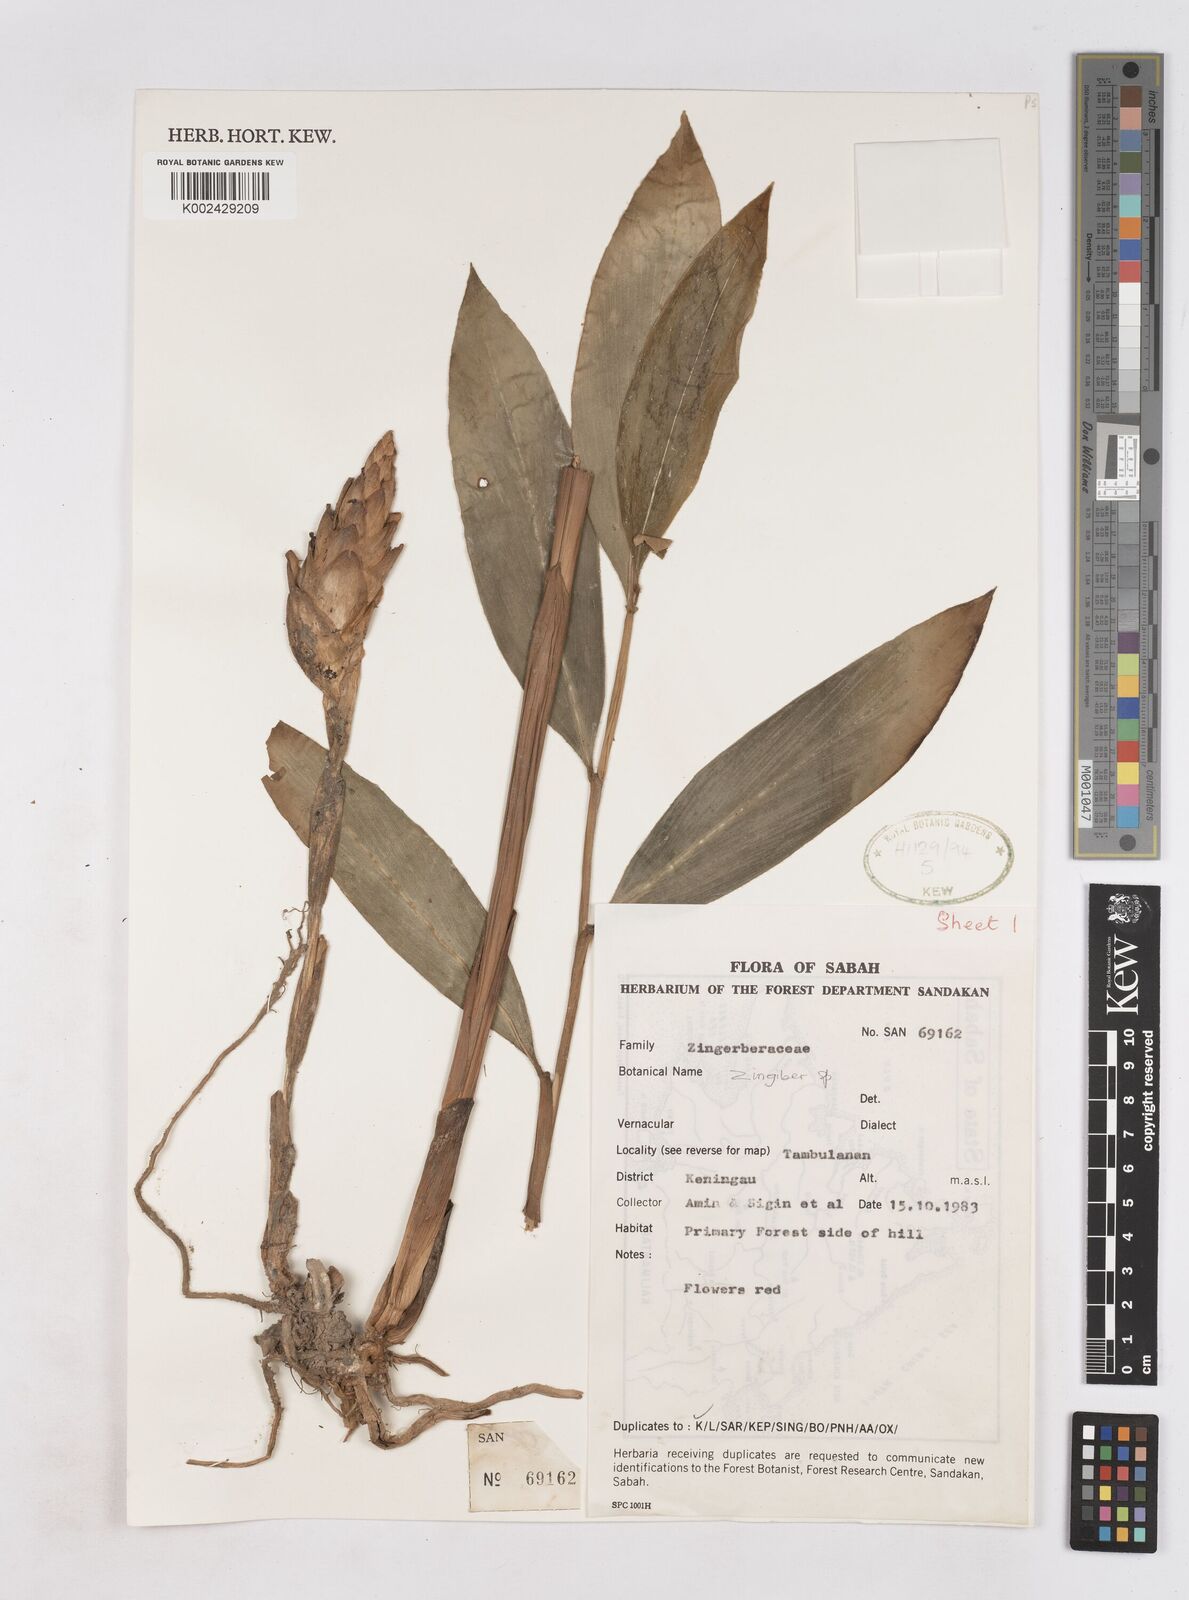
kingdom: Plantae
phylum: Tracheophyta
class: Liliopsida
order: Zingiberales
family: Zingiberaceae
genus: Zingiber
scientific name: Zingiber
